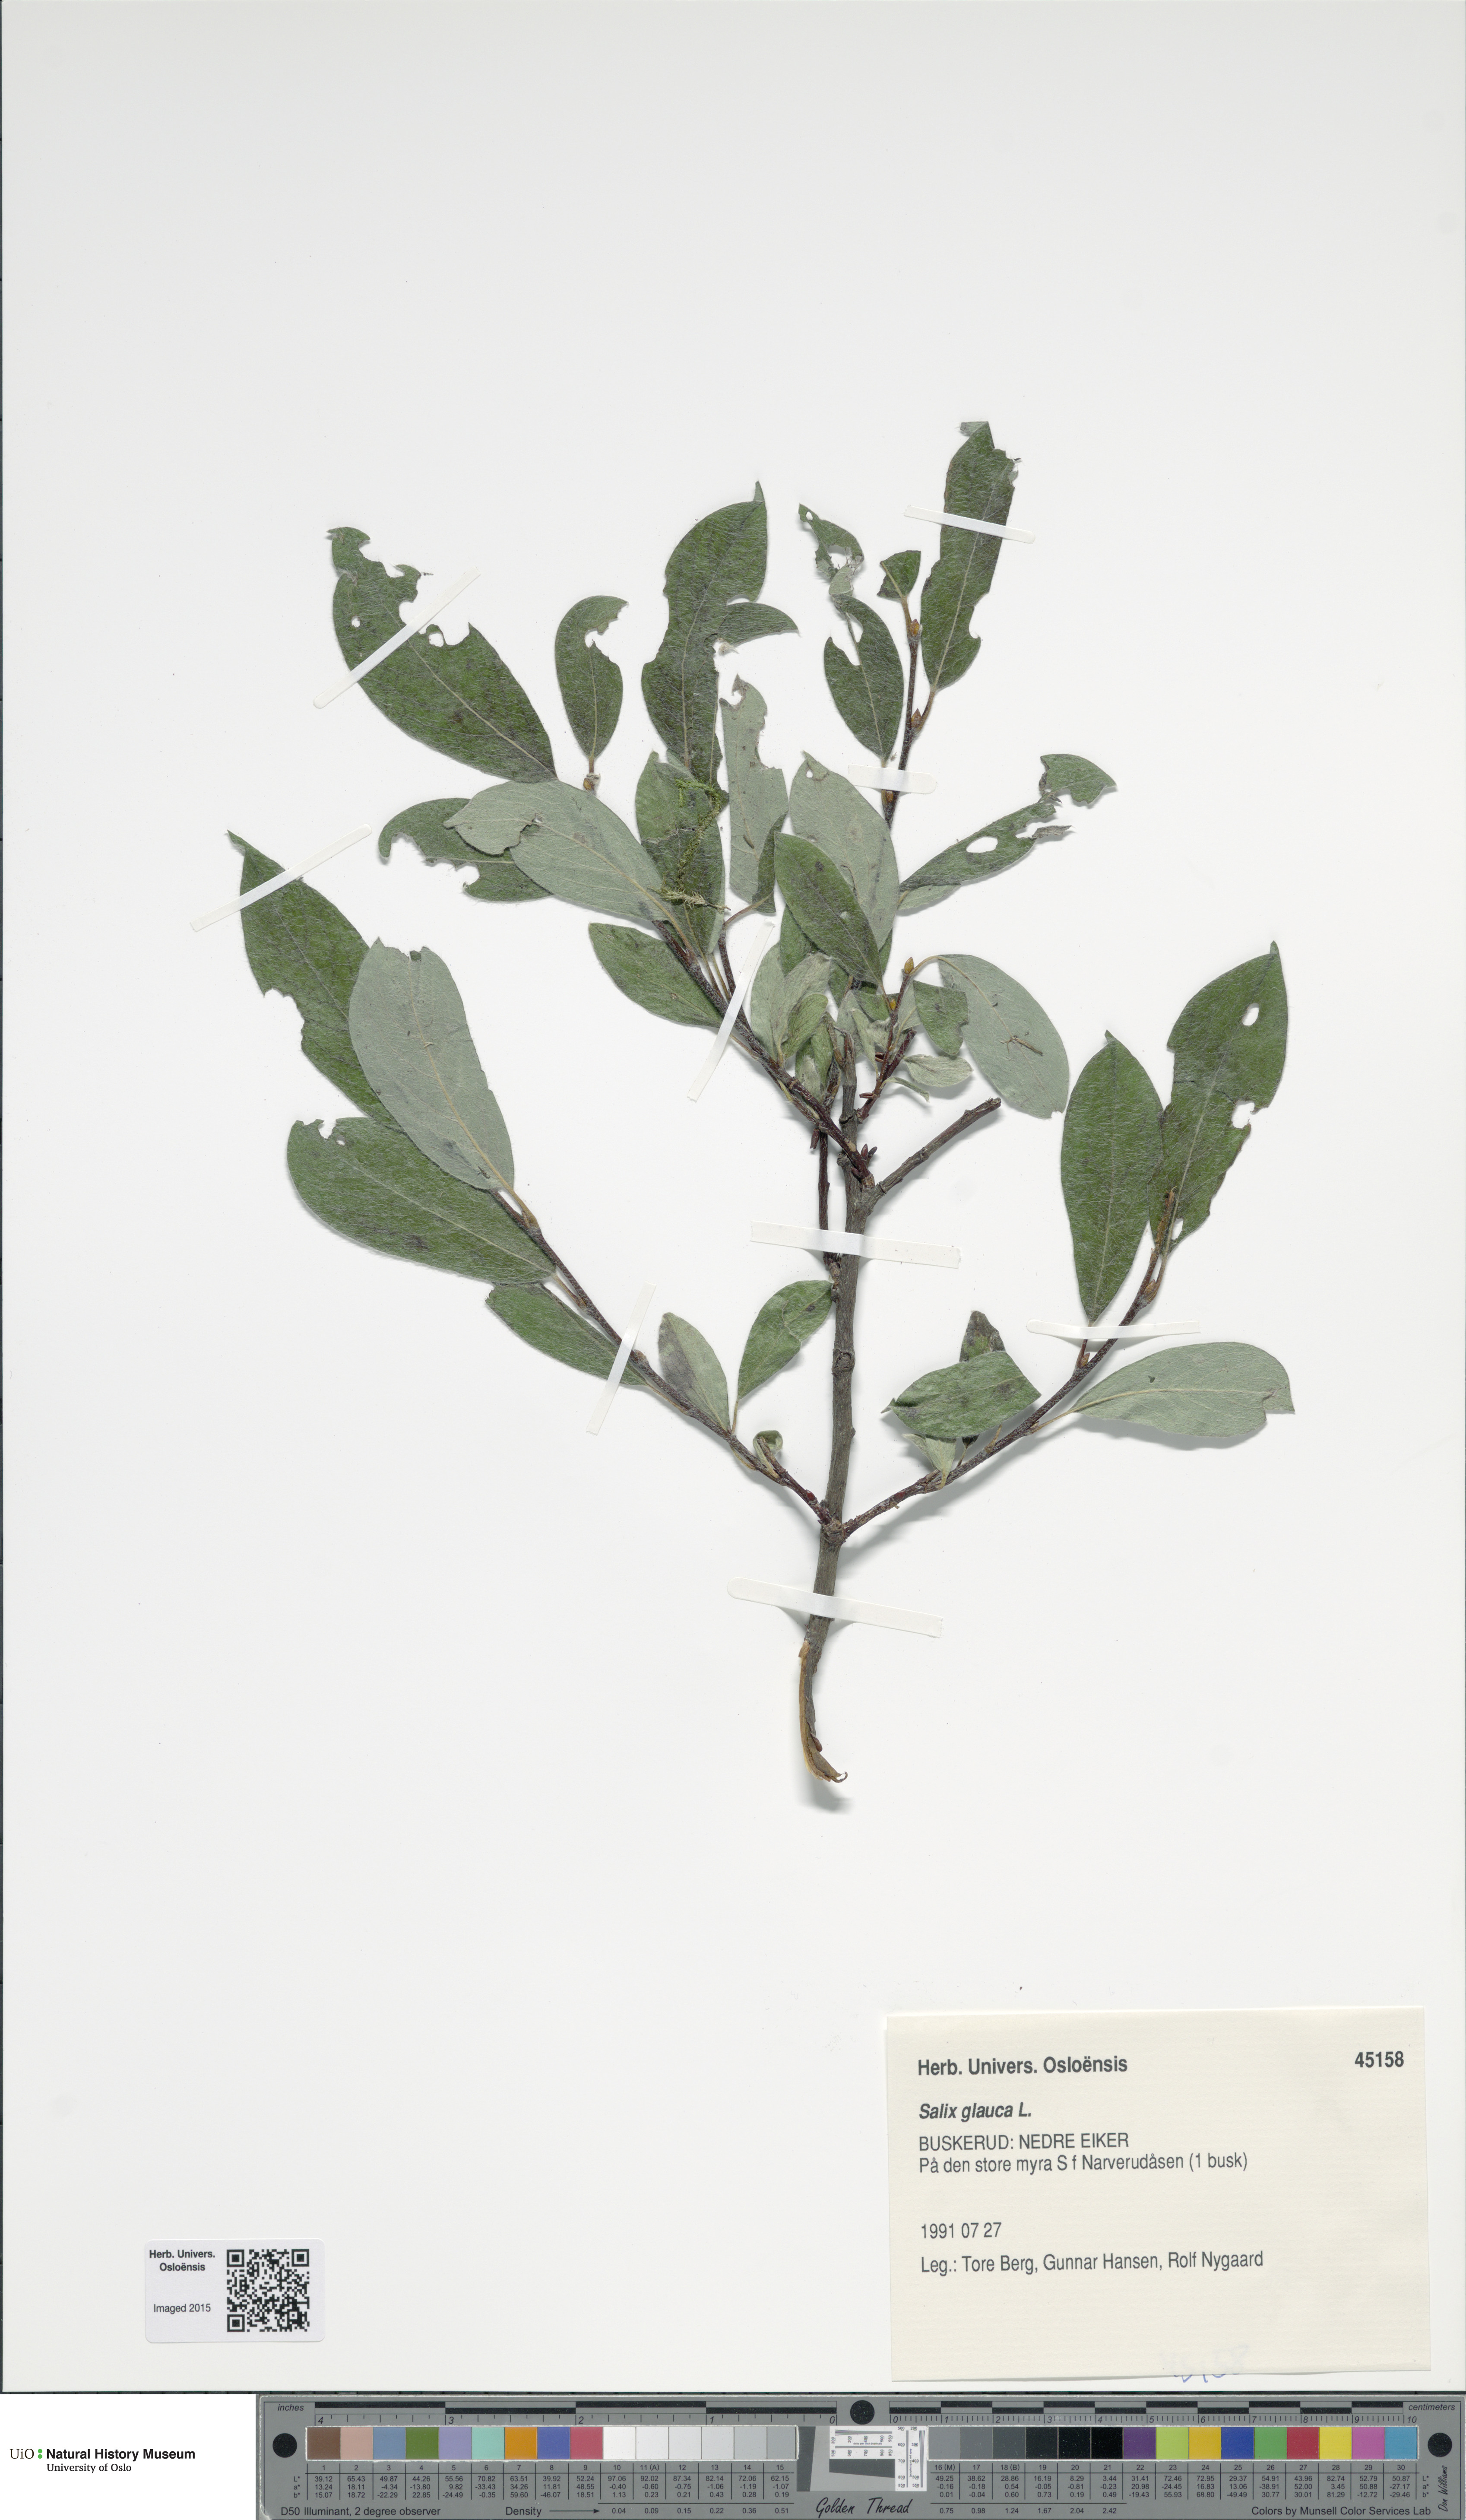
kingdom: Plantae
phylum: Tracheophyta
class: Magnoliopsida
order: Malpighiales
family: Salicaceae
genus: Salix
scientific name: Salix glauca
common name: Glaucous willow
